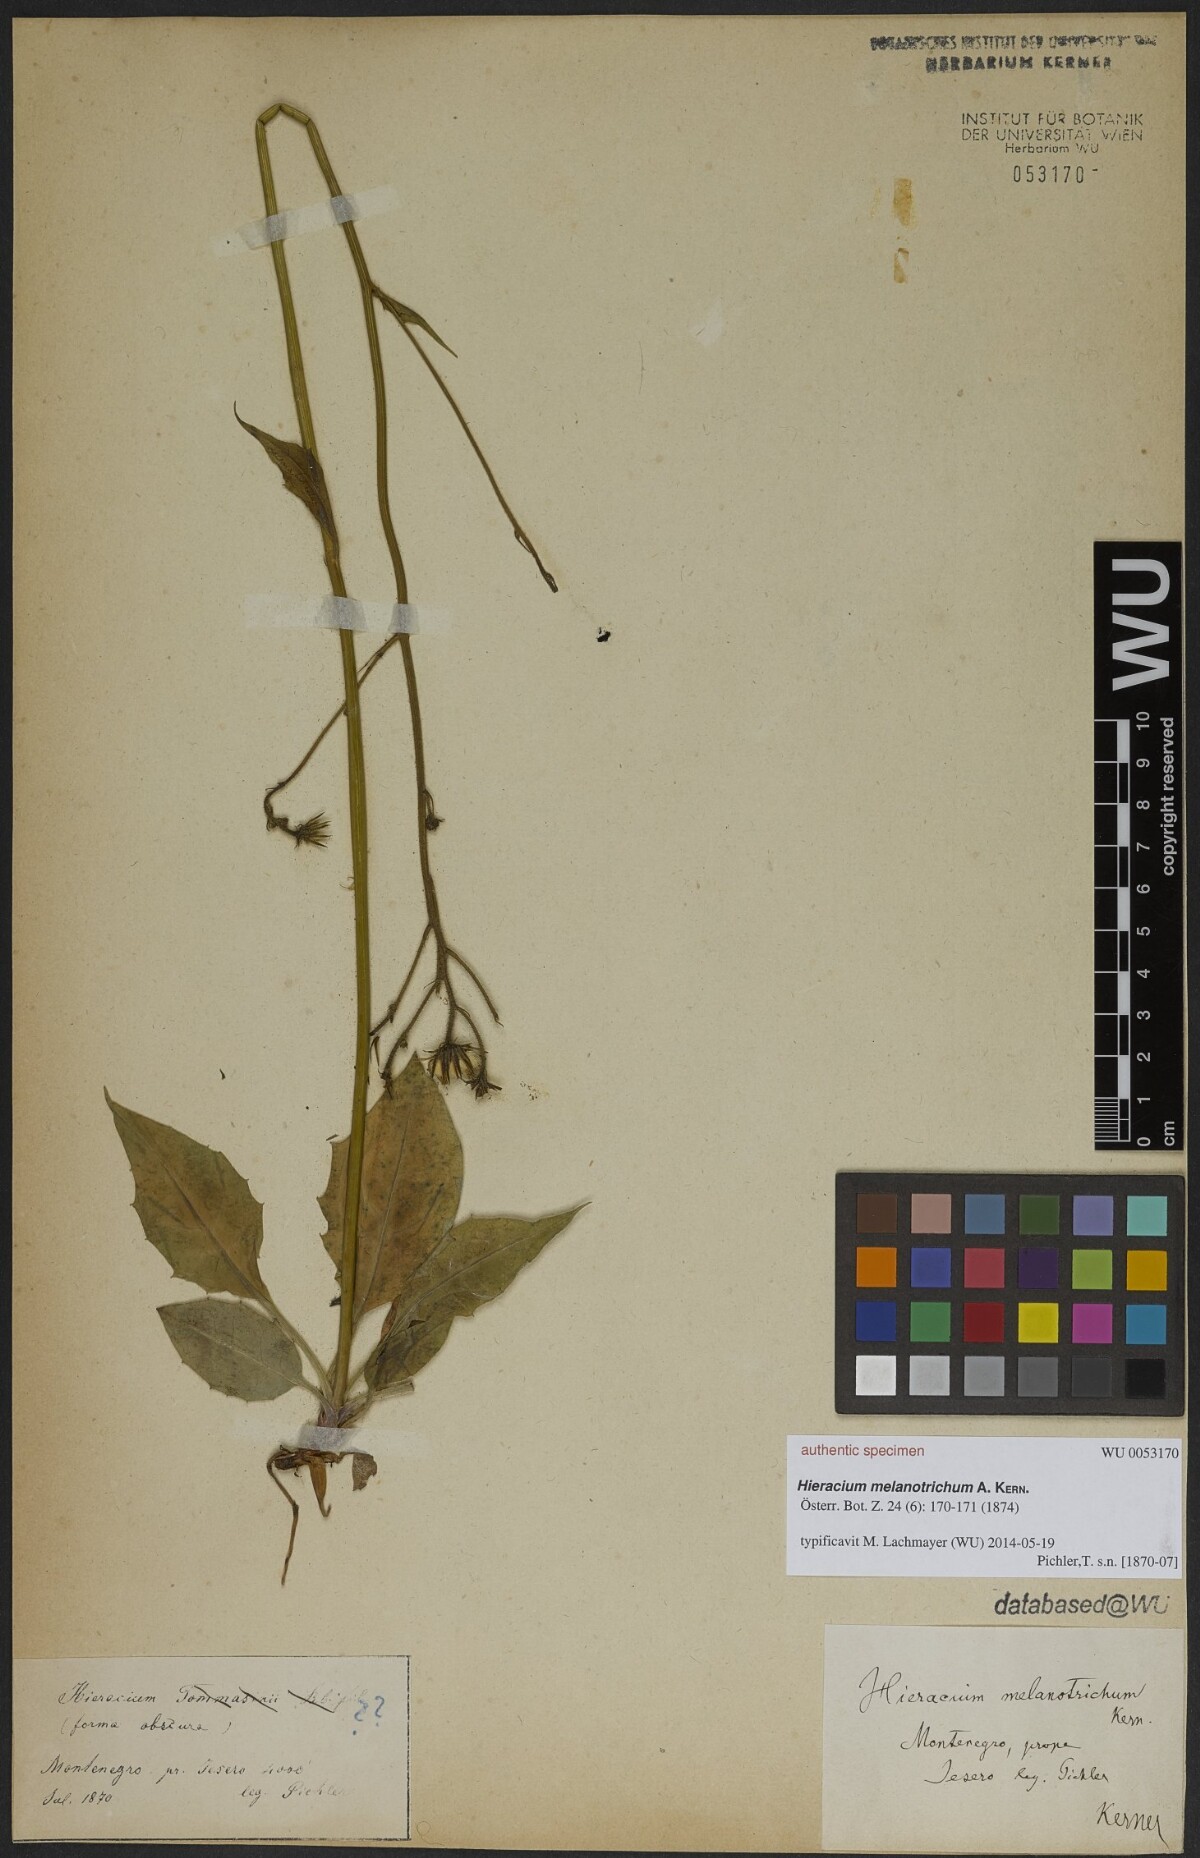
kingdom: Plantae
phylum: Tracheophyta
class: Magnoliopsida
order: Asterales
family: Asteraceae
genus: Hieracium
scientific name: Hieracium melanotrichum
